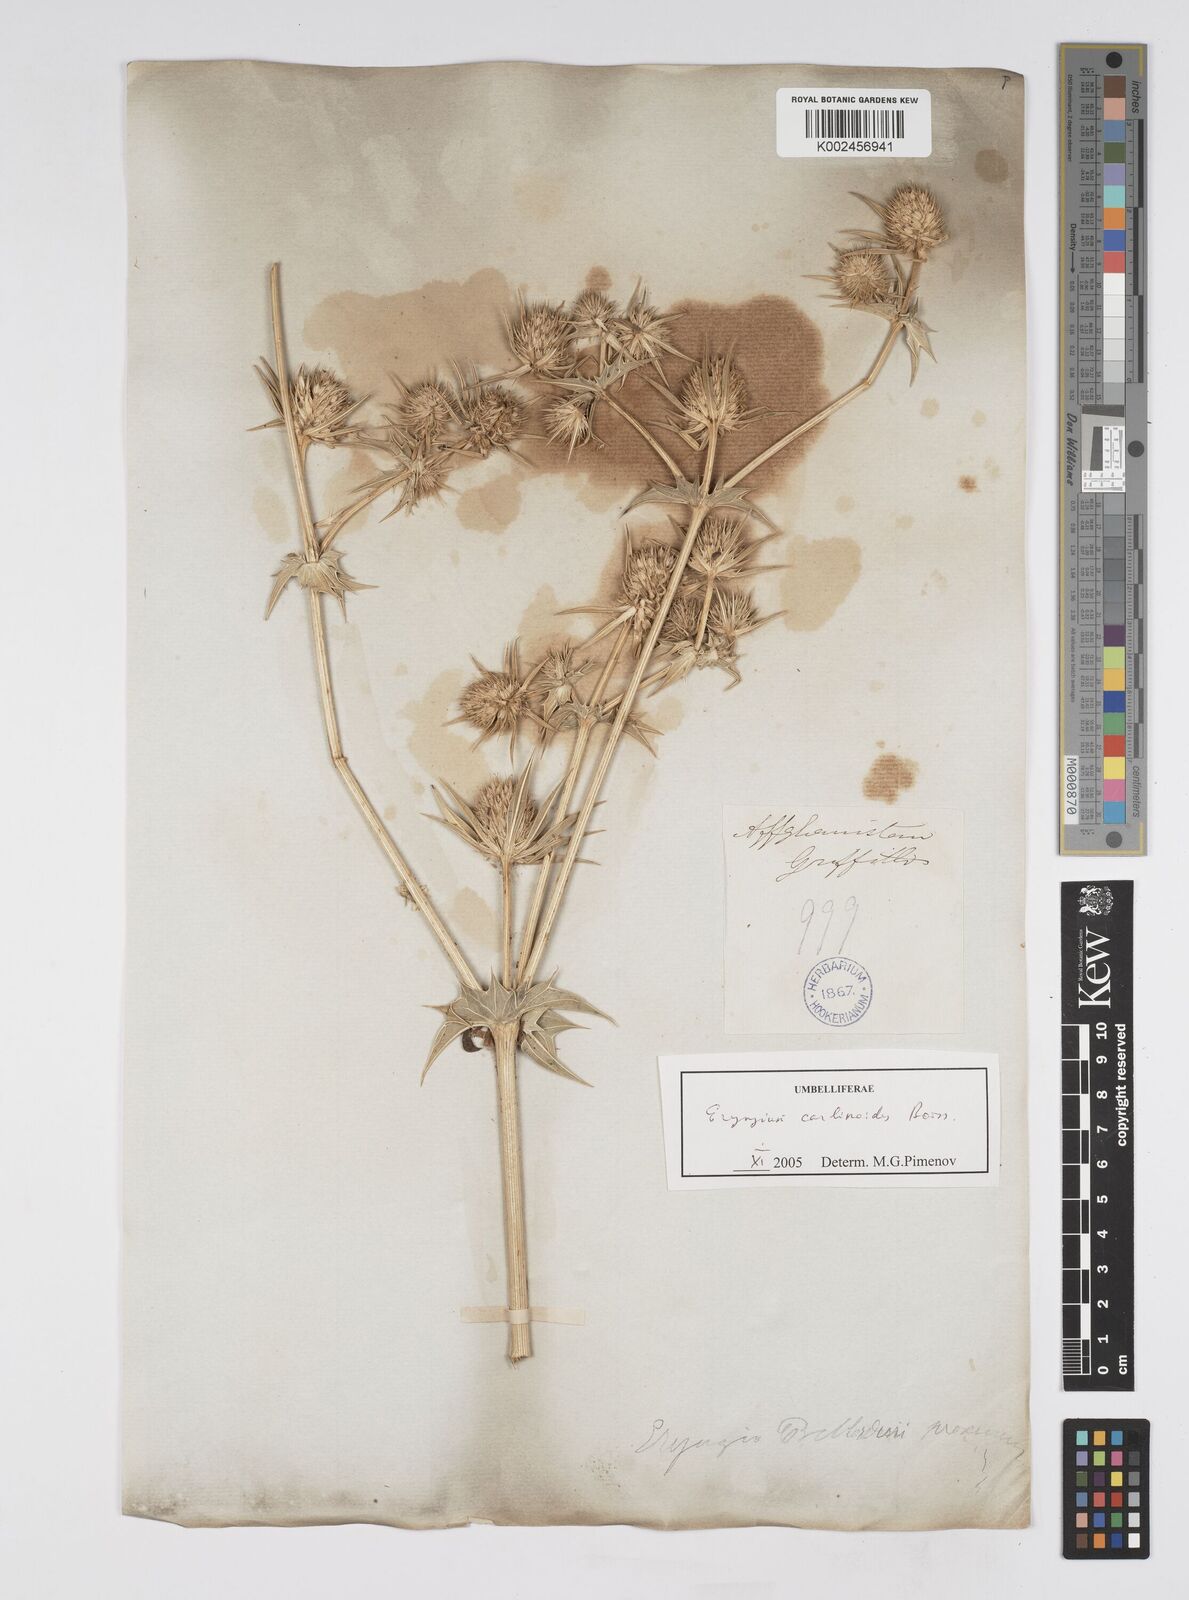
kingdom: Plantae
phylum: Tracheophyta
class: Magnoliopsida
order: Apiales
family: Apiaceae
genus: Eryngium
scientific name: Eryngium
